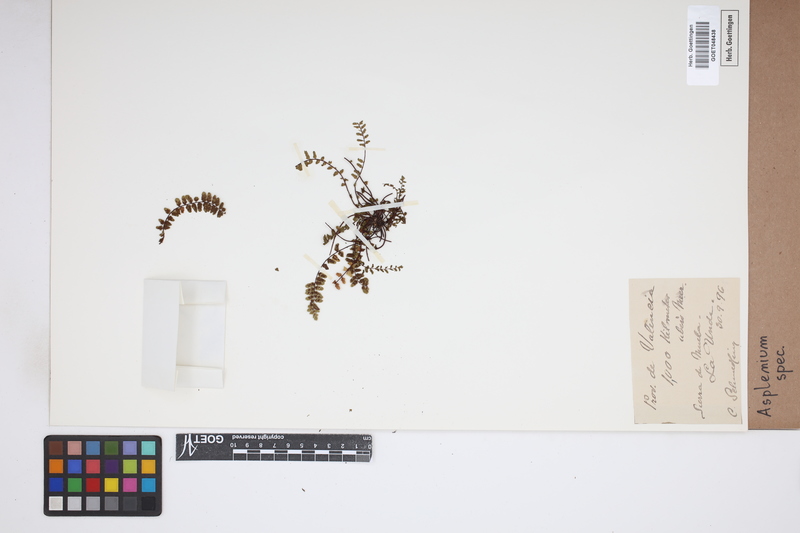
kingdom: Plantae
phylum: Tracheophyta
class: Polypodiopsida
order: Polypodiales
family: Aspleniaceae
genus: Asplenium
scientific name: Asplenium
